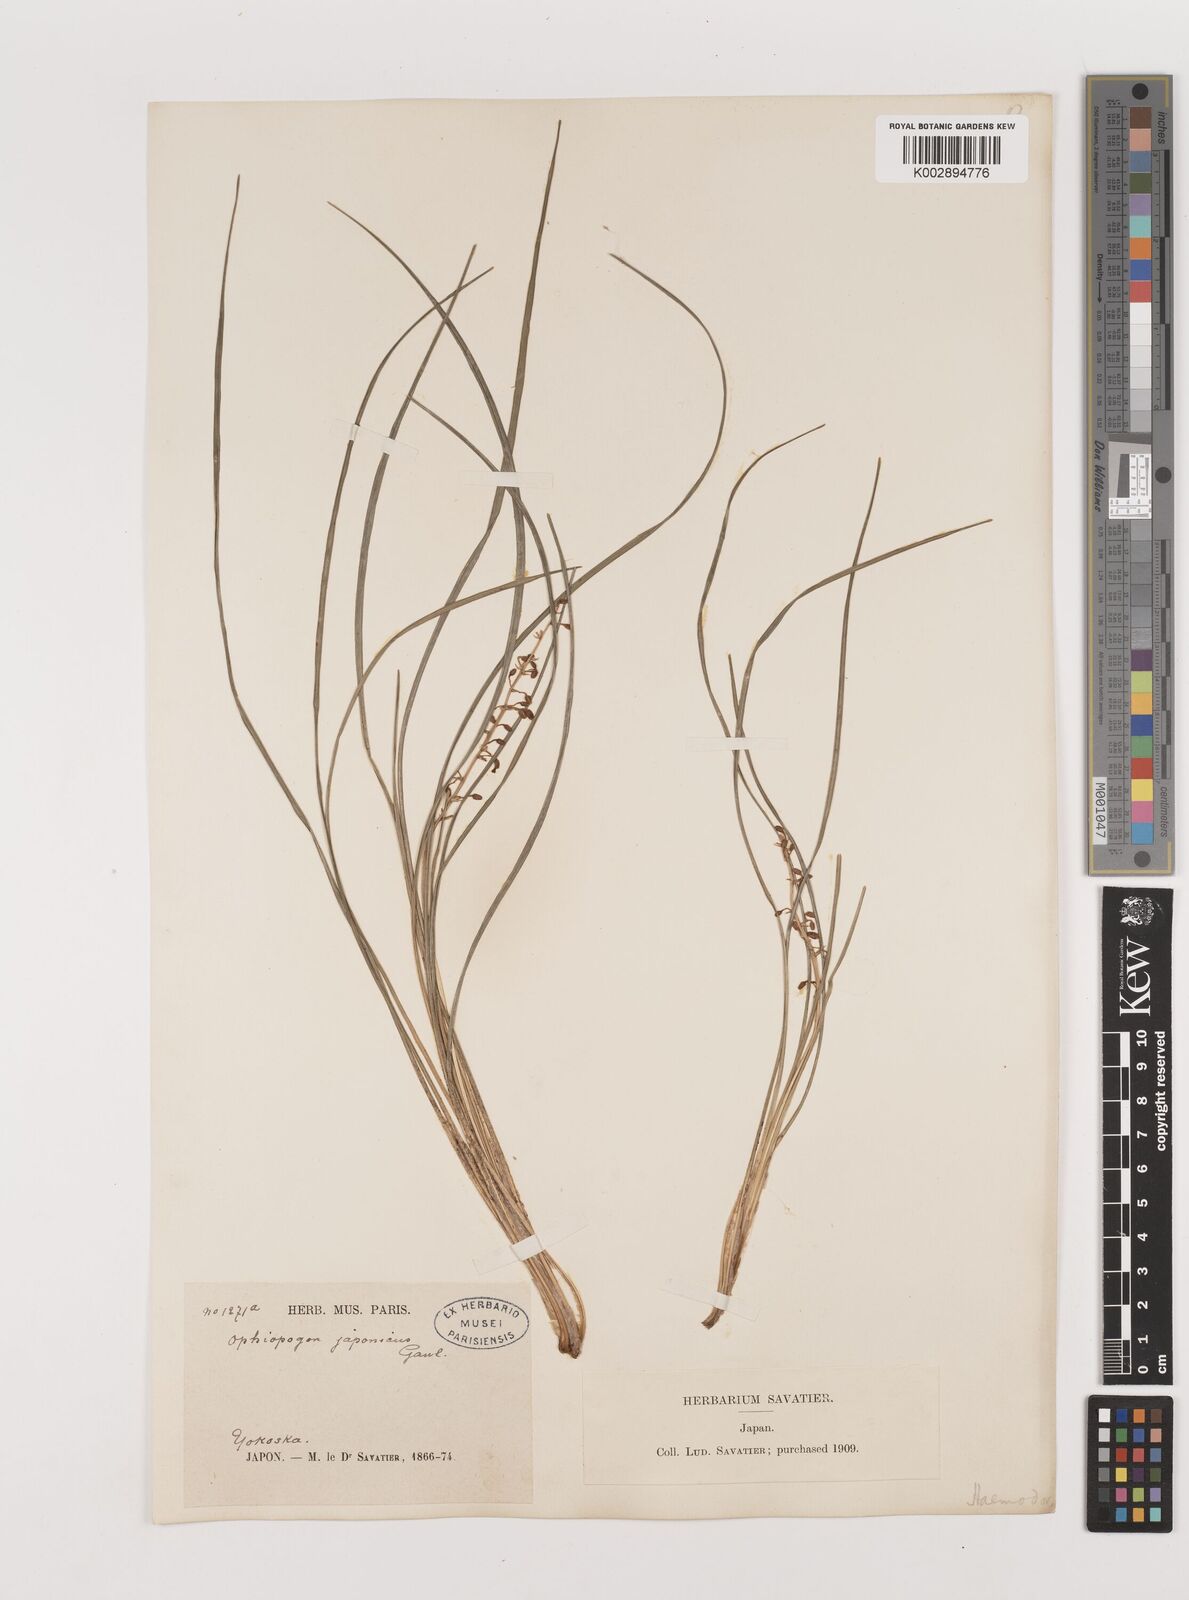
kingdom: Plantae
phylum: Tracheophyta
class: Liliopsida
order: Asparagales
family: Asparagaceae
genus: Ophiopogon
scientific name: Ophiopogon japonicus
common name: Dwarf lilyturf
